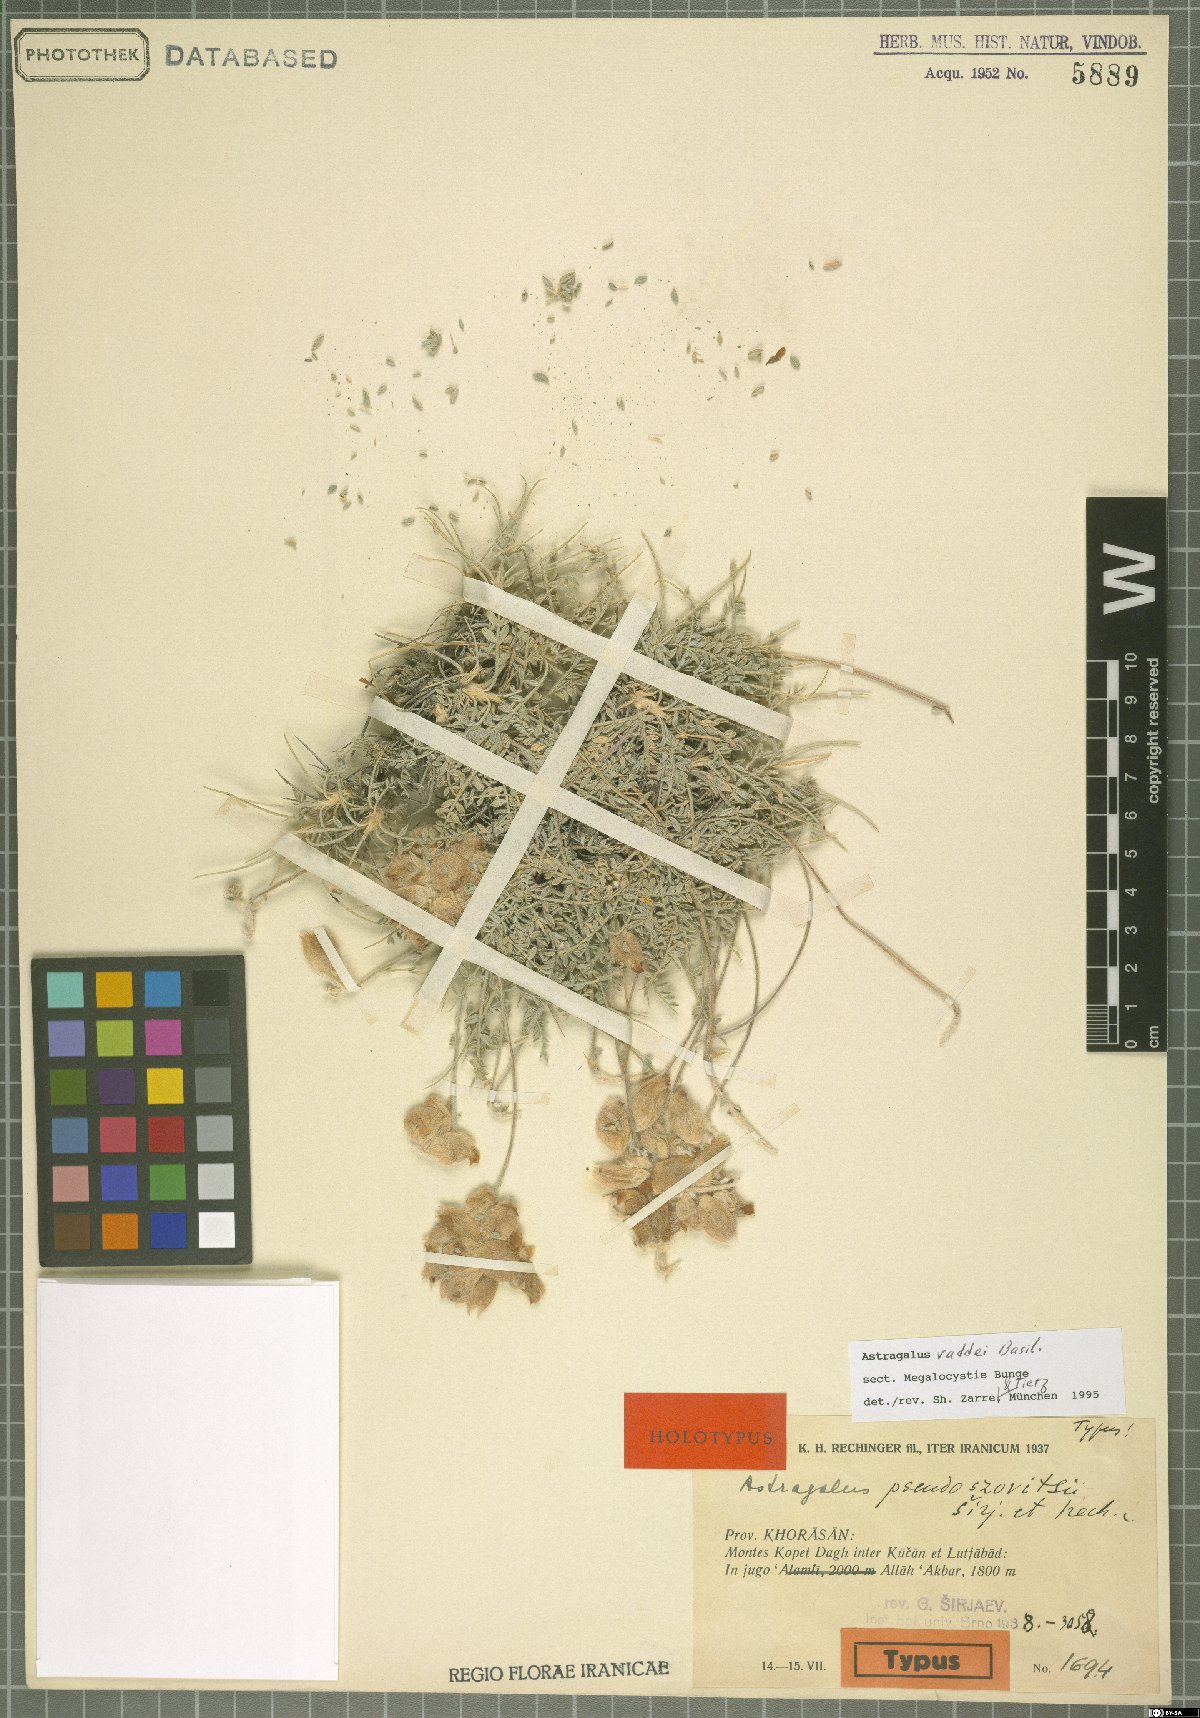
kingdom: Plantae
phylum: Tracheophyta
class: Magnoliopsida
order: Fabales
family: Fabaceae
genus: Astragalus
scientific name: Astragalus raddei
